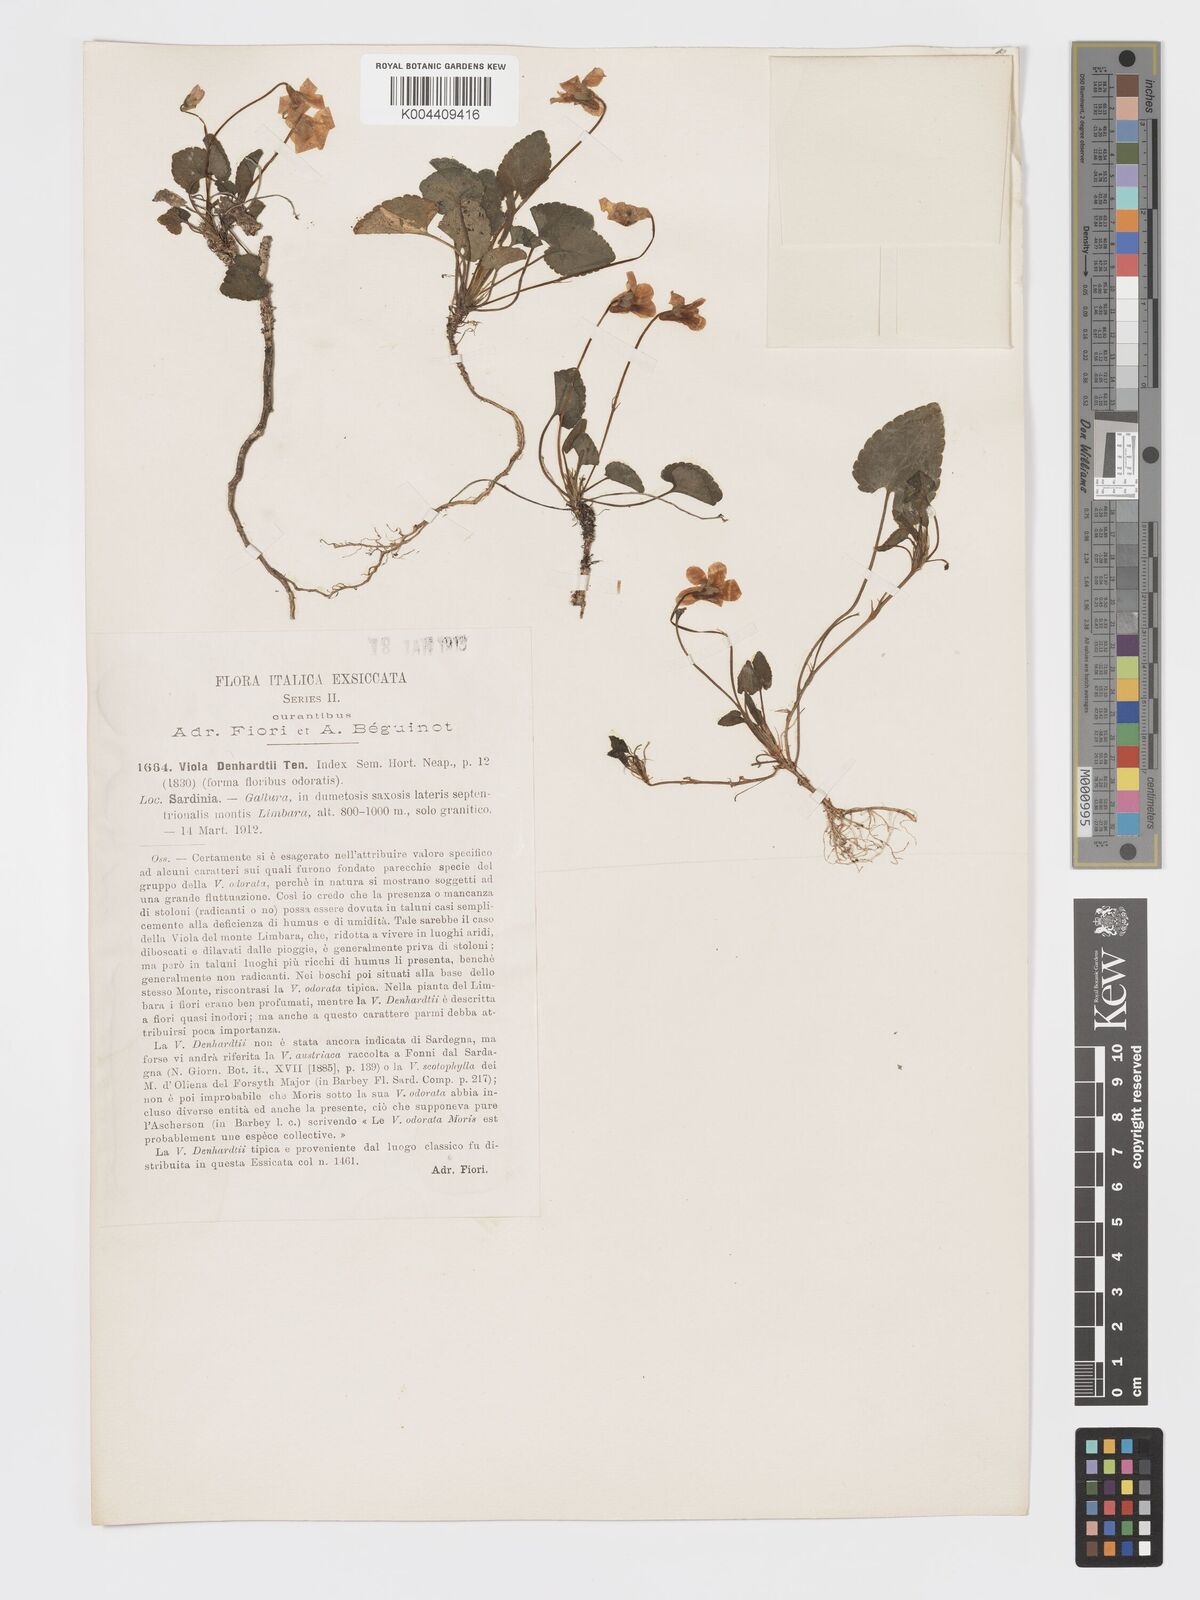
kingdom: Plantae
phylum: Tracheophyta
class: Magnoliopsida
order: Malpighiales
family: Violaceae
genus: Viola
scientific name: Viola alba
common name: White violet
